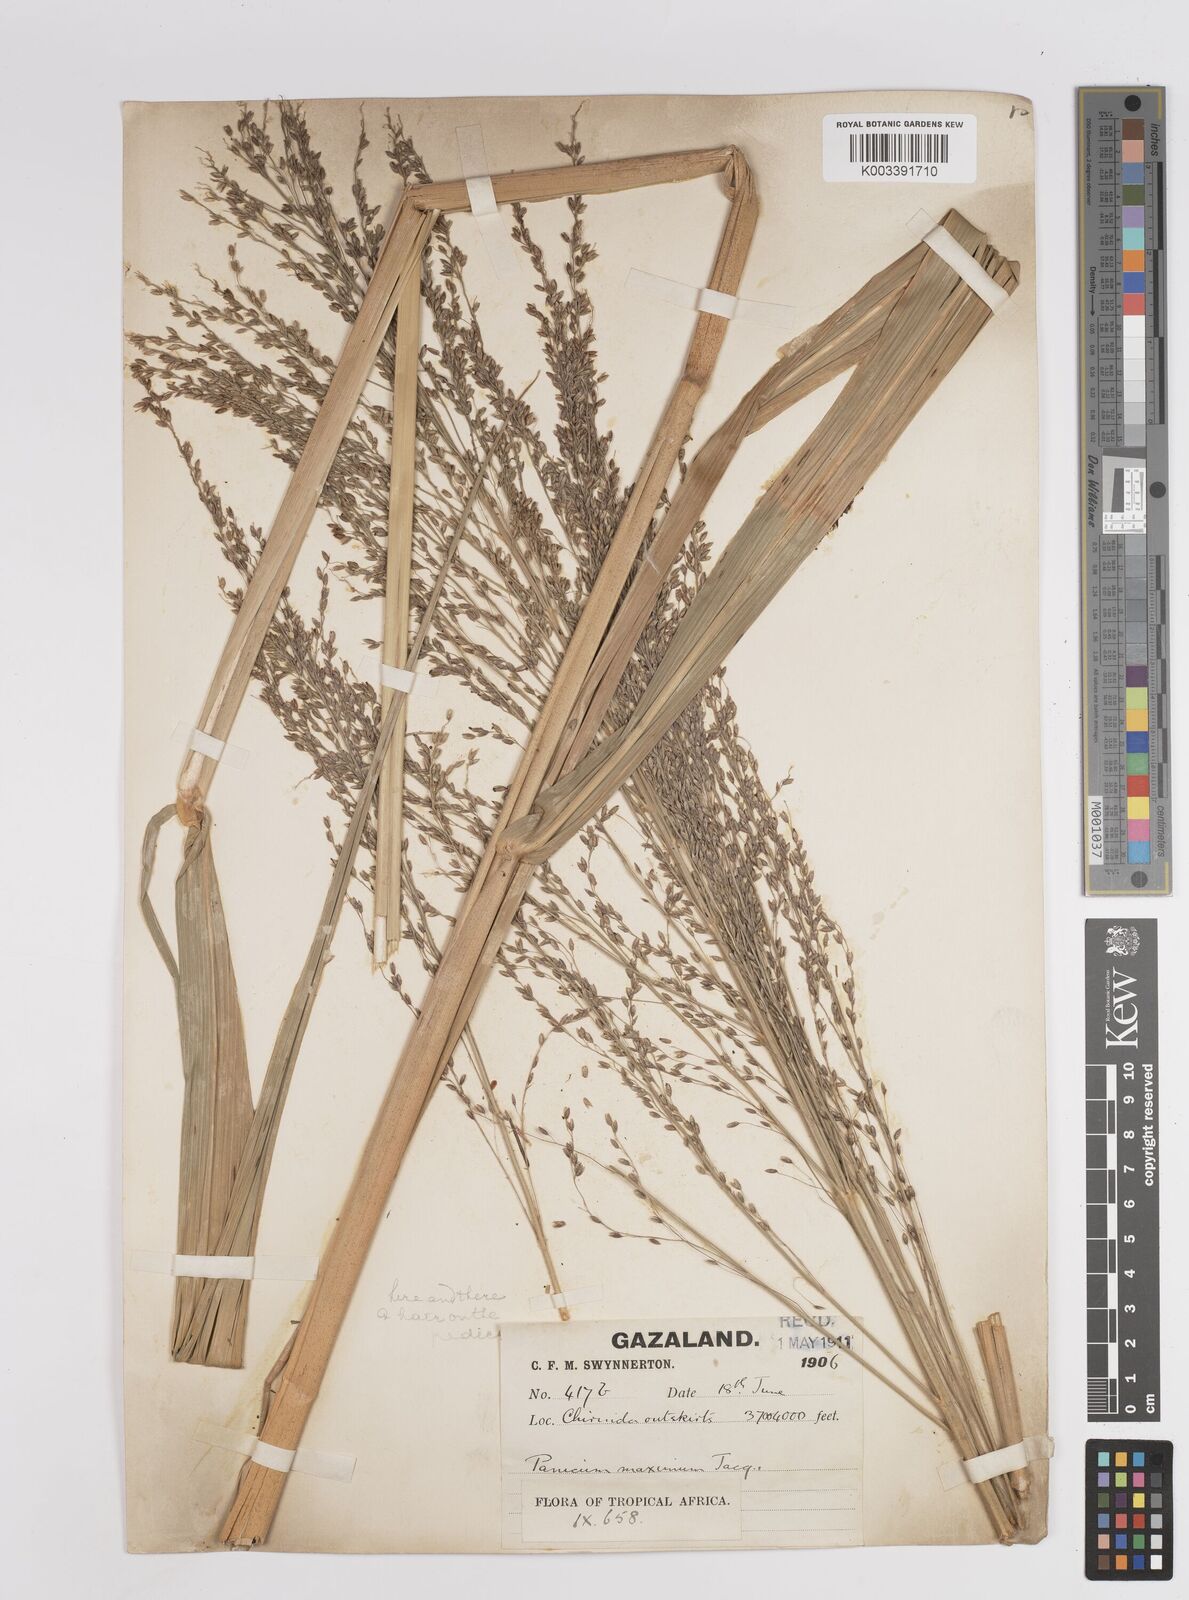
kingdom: Plantae
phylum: Tracheophyta
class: Liliopsida
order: Poales
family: Poaceae
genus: Megathyrsus
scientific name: Megathyrsus maximus
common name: Guineagrass
